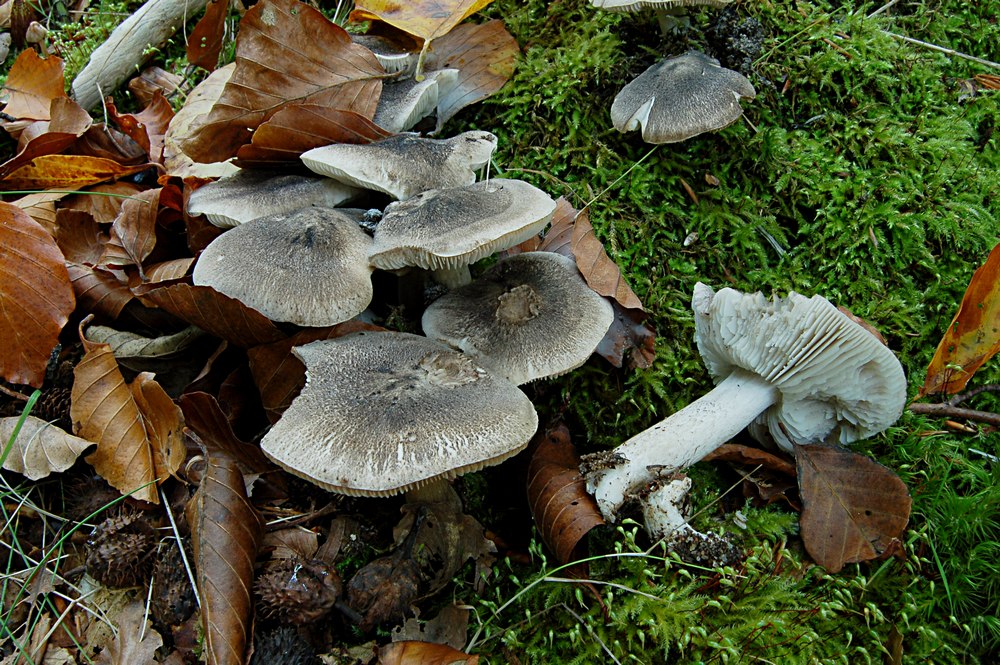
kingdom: Fungi
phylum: Basidiomycota
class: Agaricomycetes
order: Agaricales
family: Tricholomataceae
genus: Tricholoma
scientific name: Tricholoma orirubens
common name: rødbladet ridderhat
